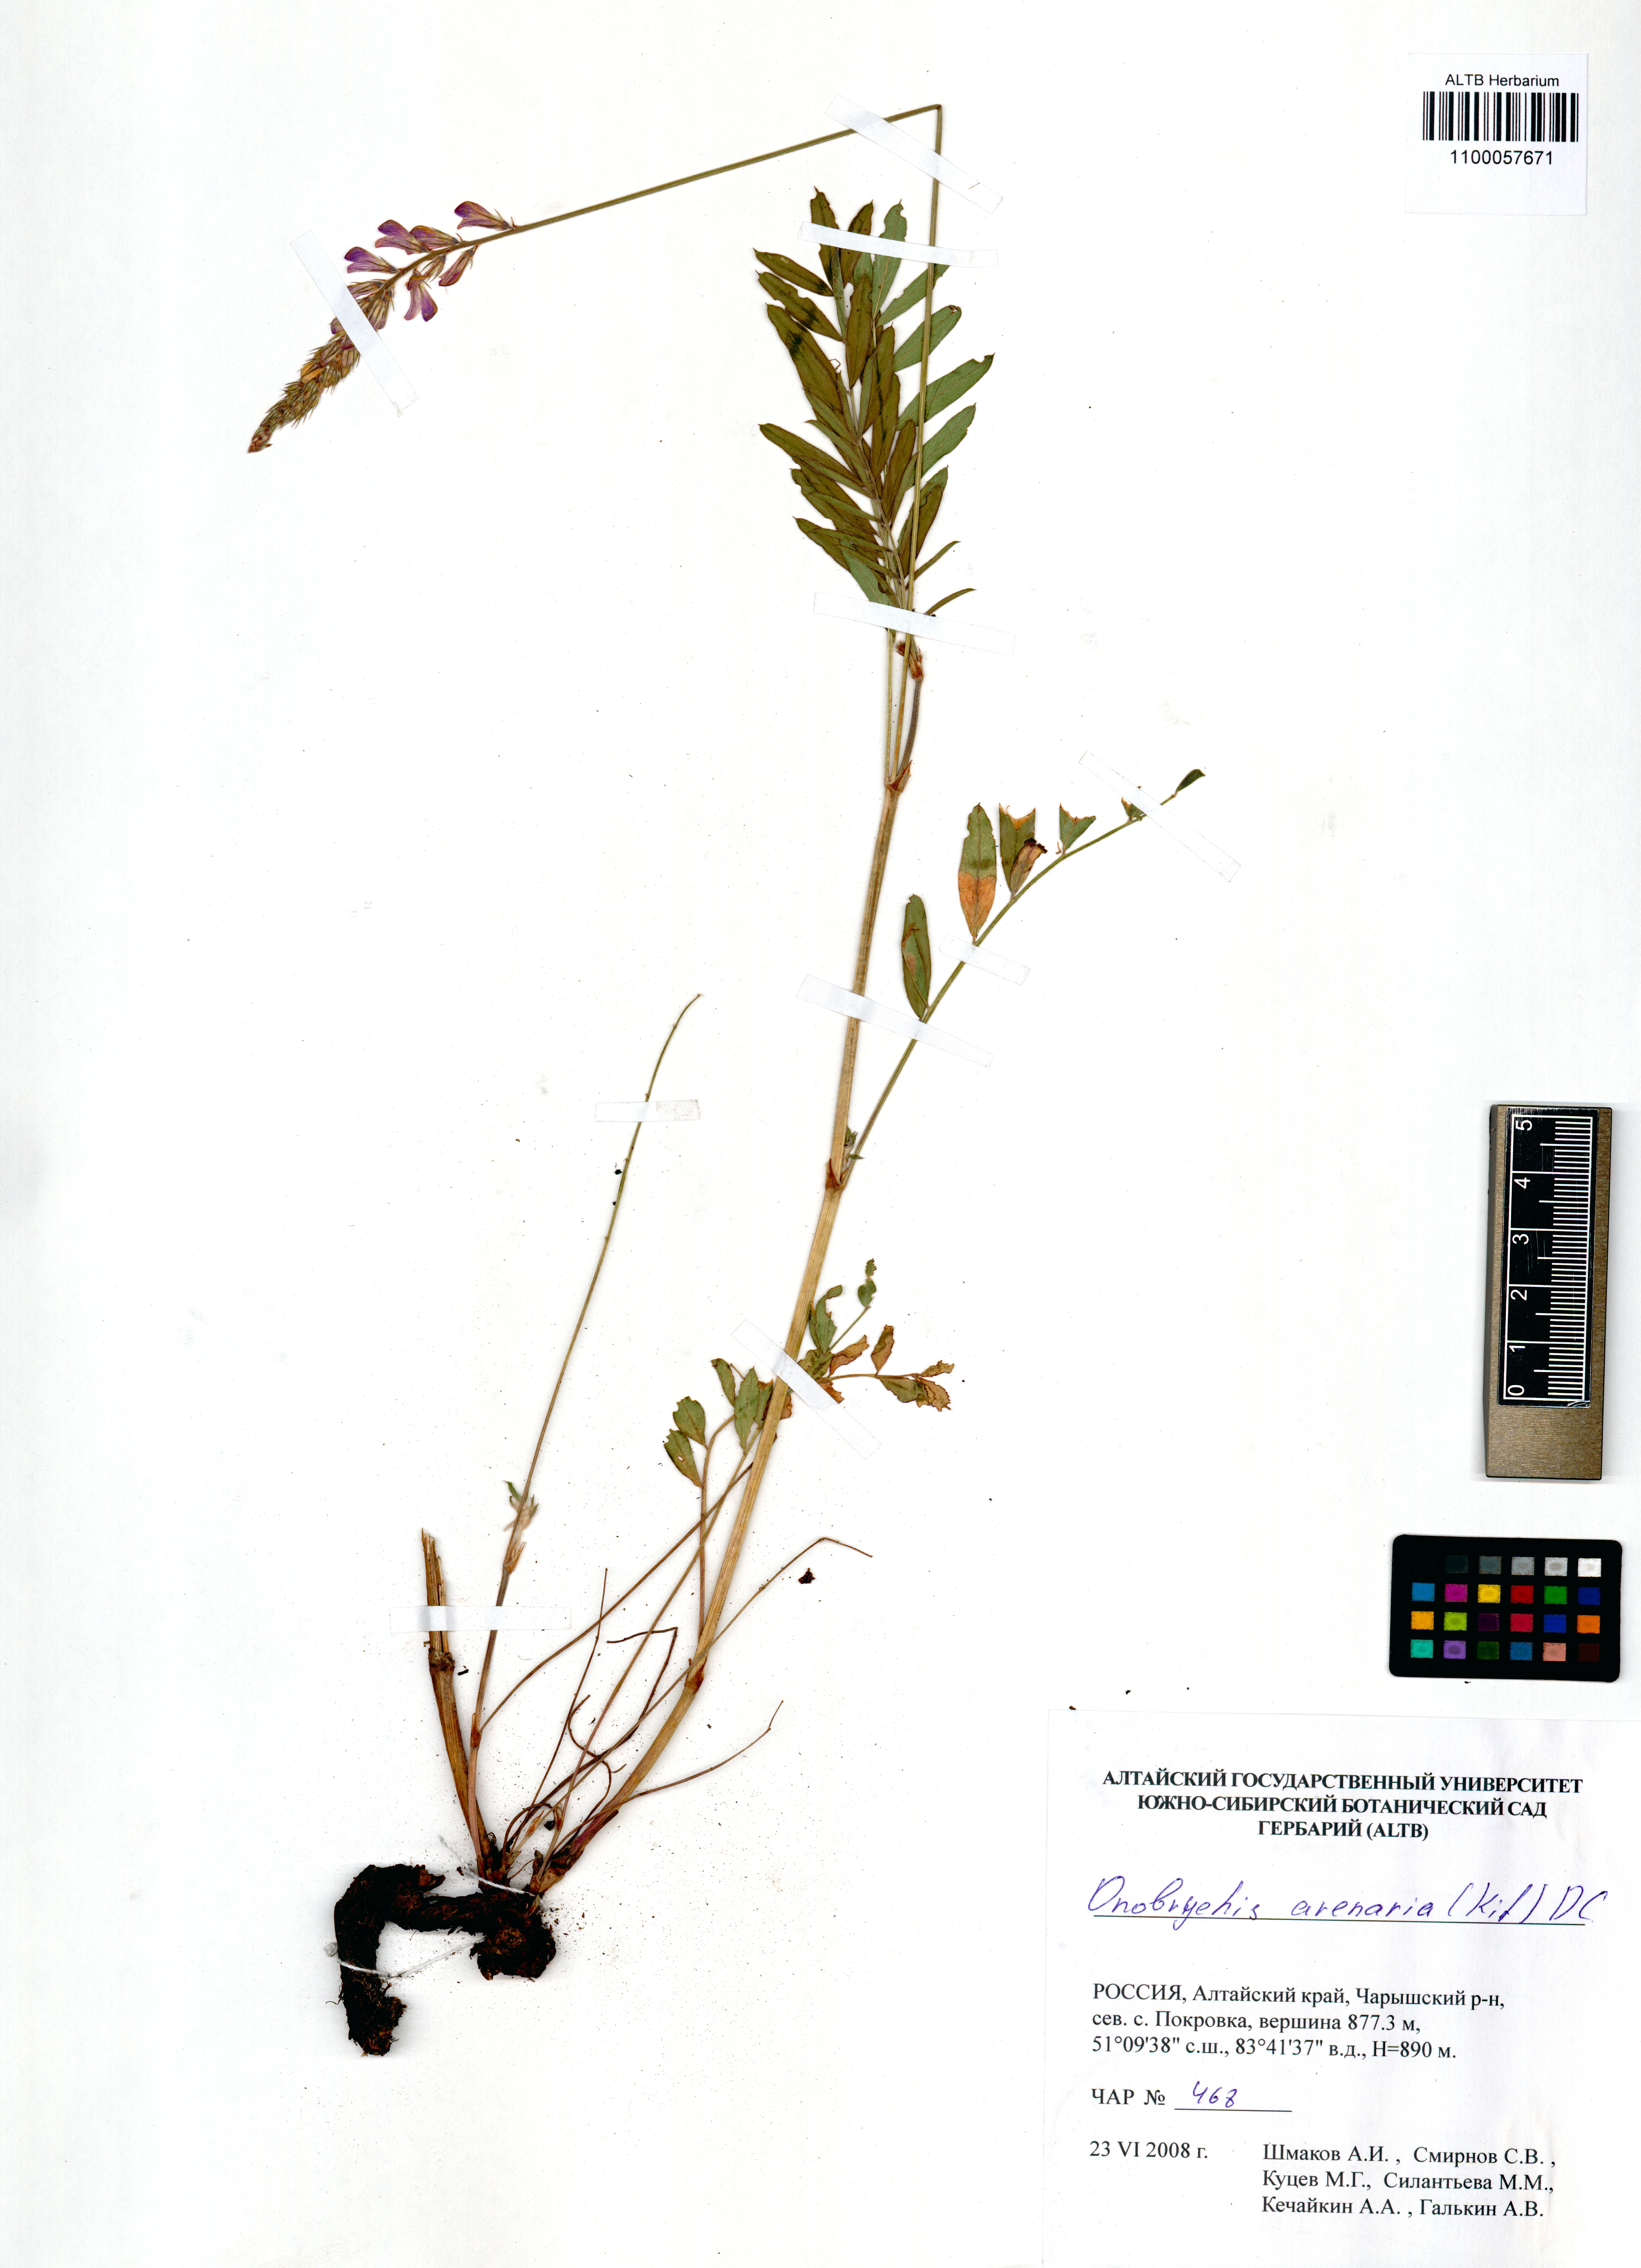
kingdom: Plantae
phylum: Tracheophyta
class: Magnoliopsida
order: Fabales
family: Fabaceae
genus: Onobrychis
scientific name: Onobrychis arenaria
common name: Sand esparcet
